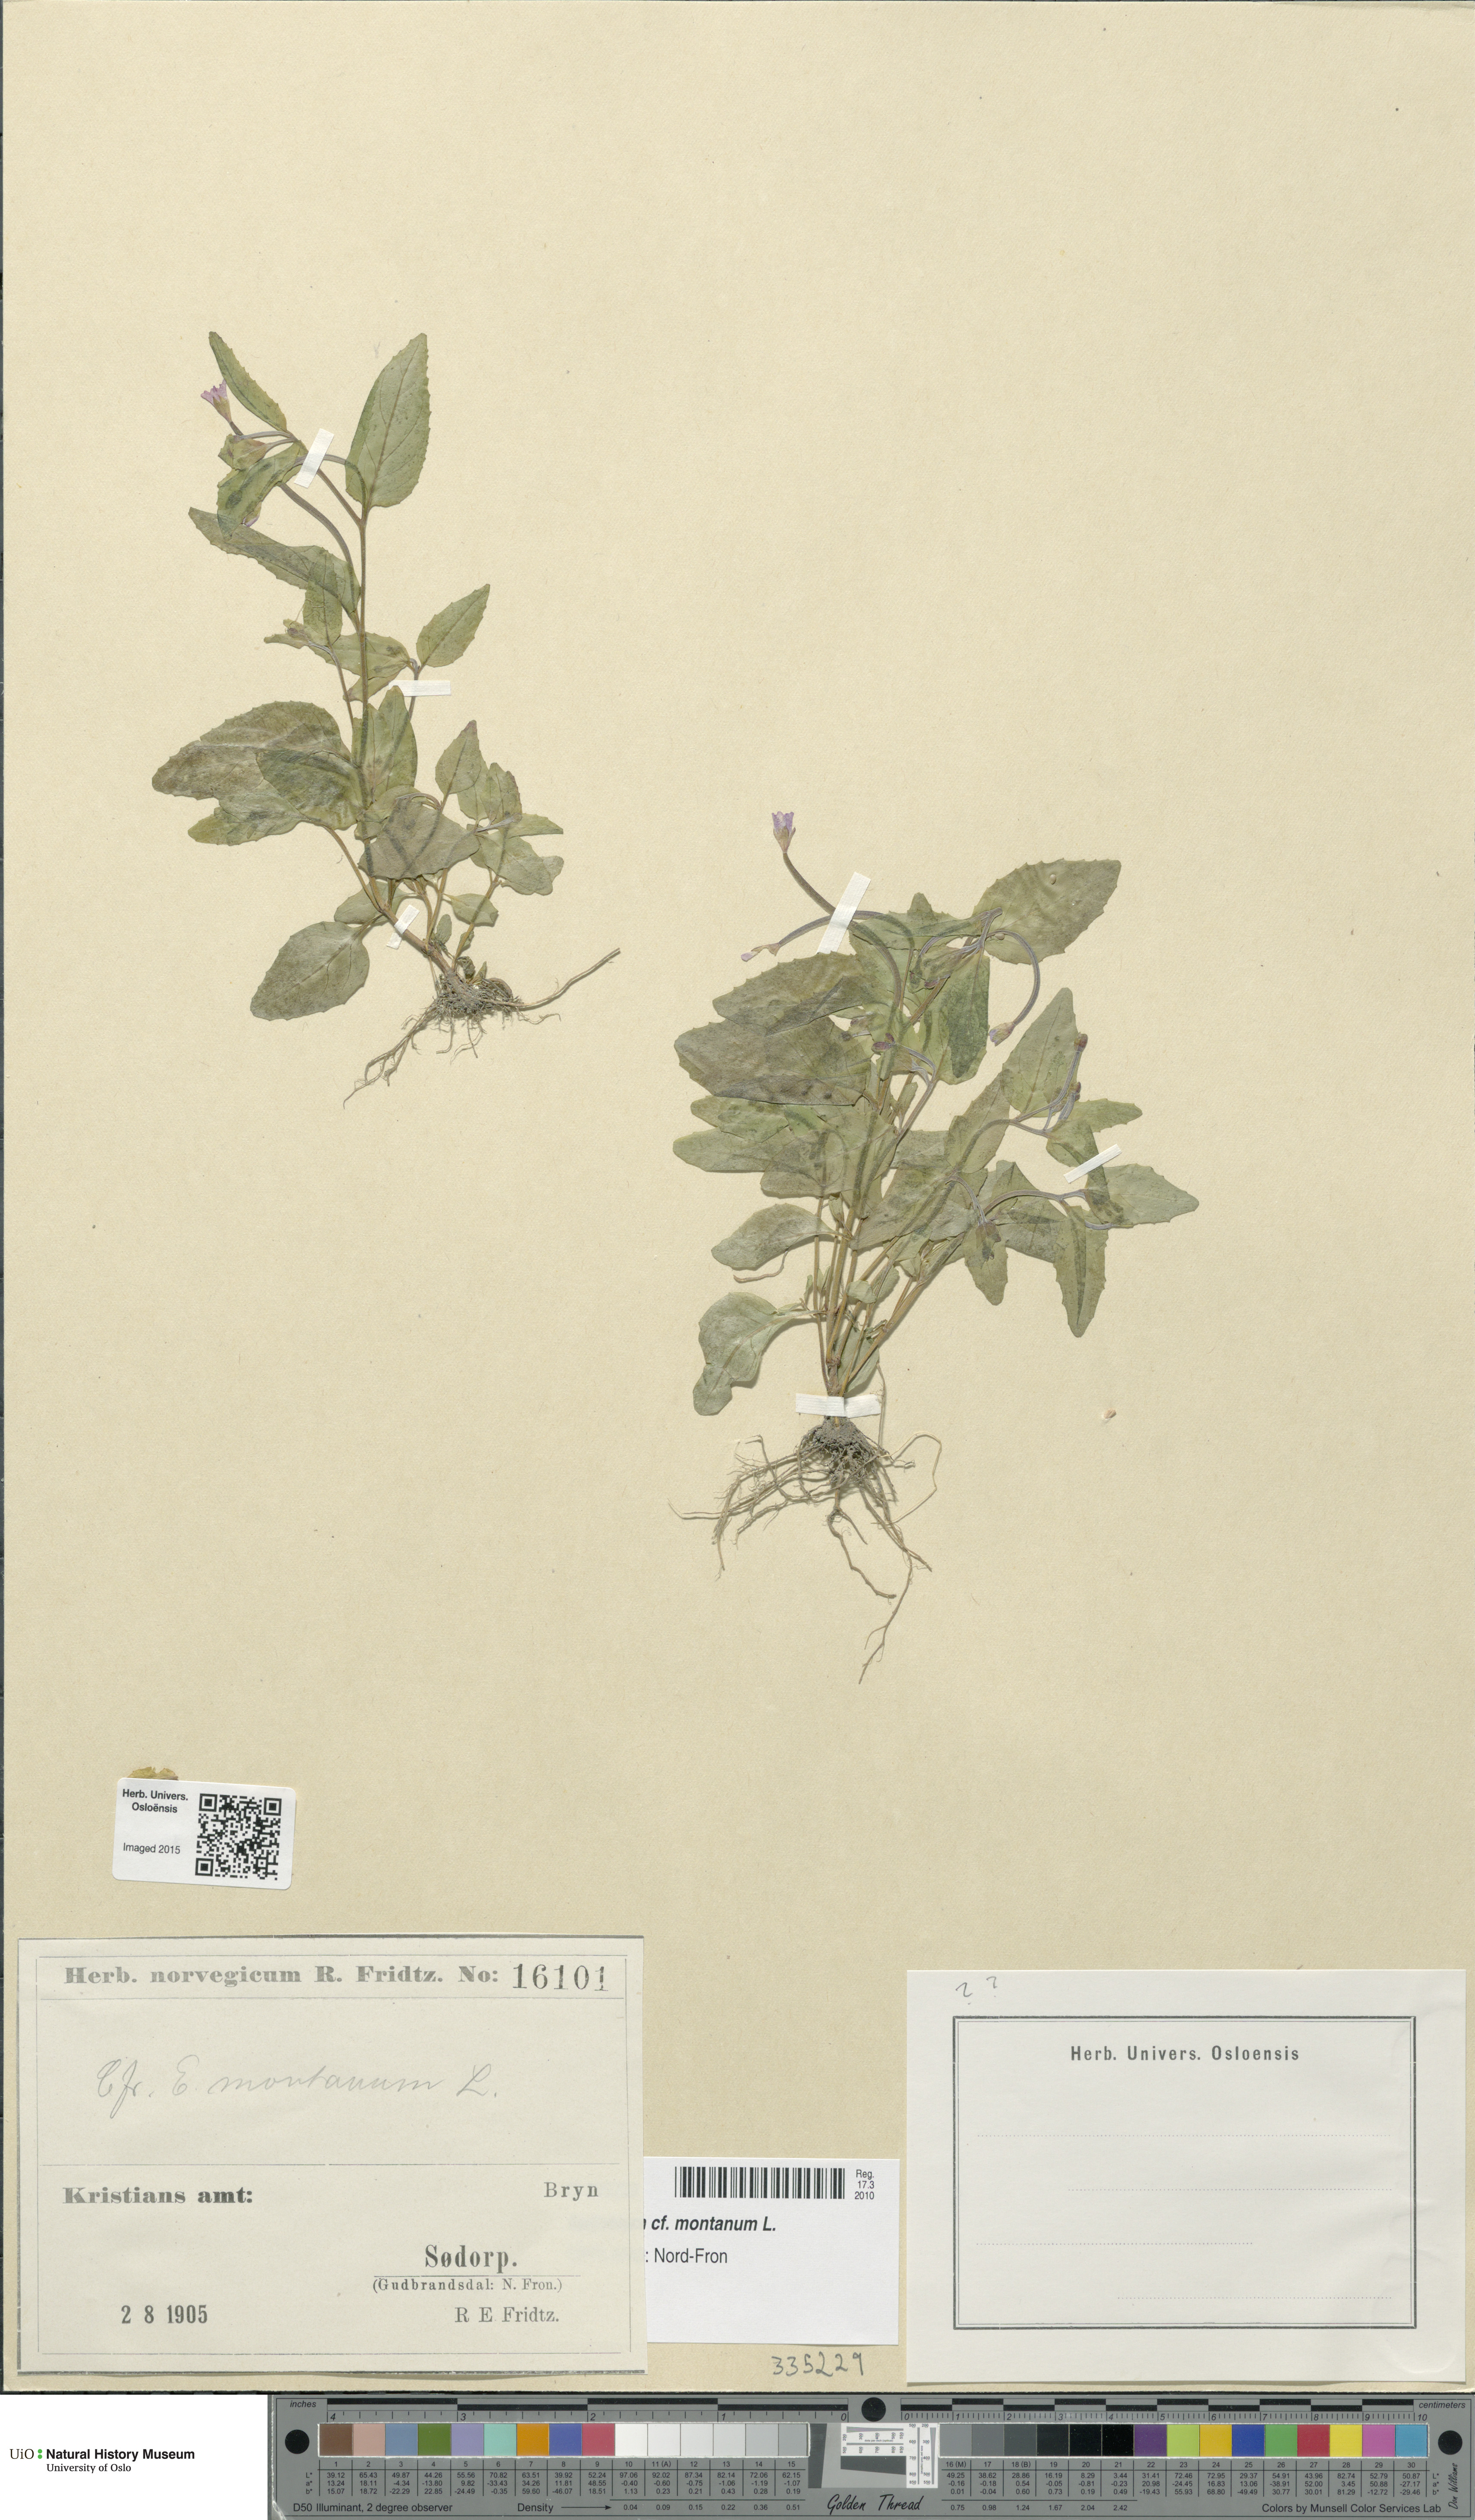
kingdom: Plantae
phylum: Tracheophyta
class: Magnoliopsida
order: Myrtales
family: Onagraceae
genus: Epilobium
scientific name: Epilobium montanum
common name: Broad-leaved willowherb
